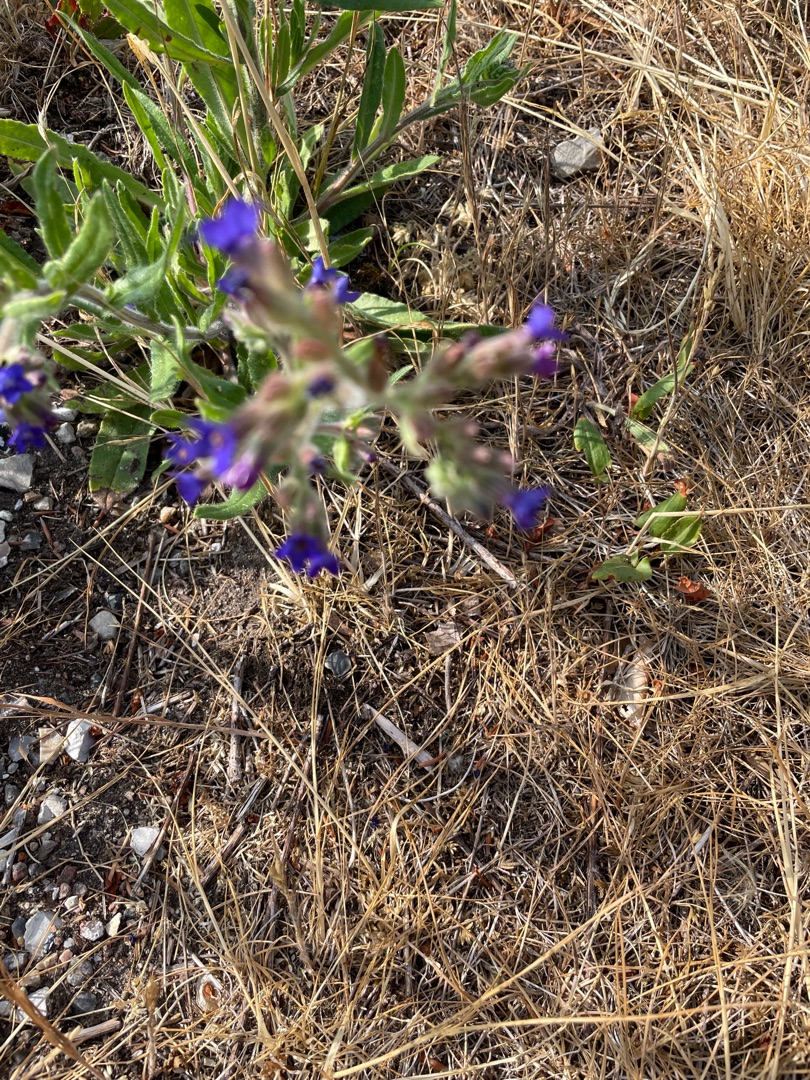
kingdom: Plantae
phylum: Tracheophyta
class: Magnoliopsida
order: Boraginales
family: Boraginaceae
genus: Anchusa
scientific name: Anchusa officinalis
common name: Læge-oksetunge
